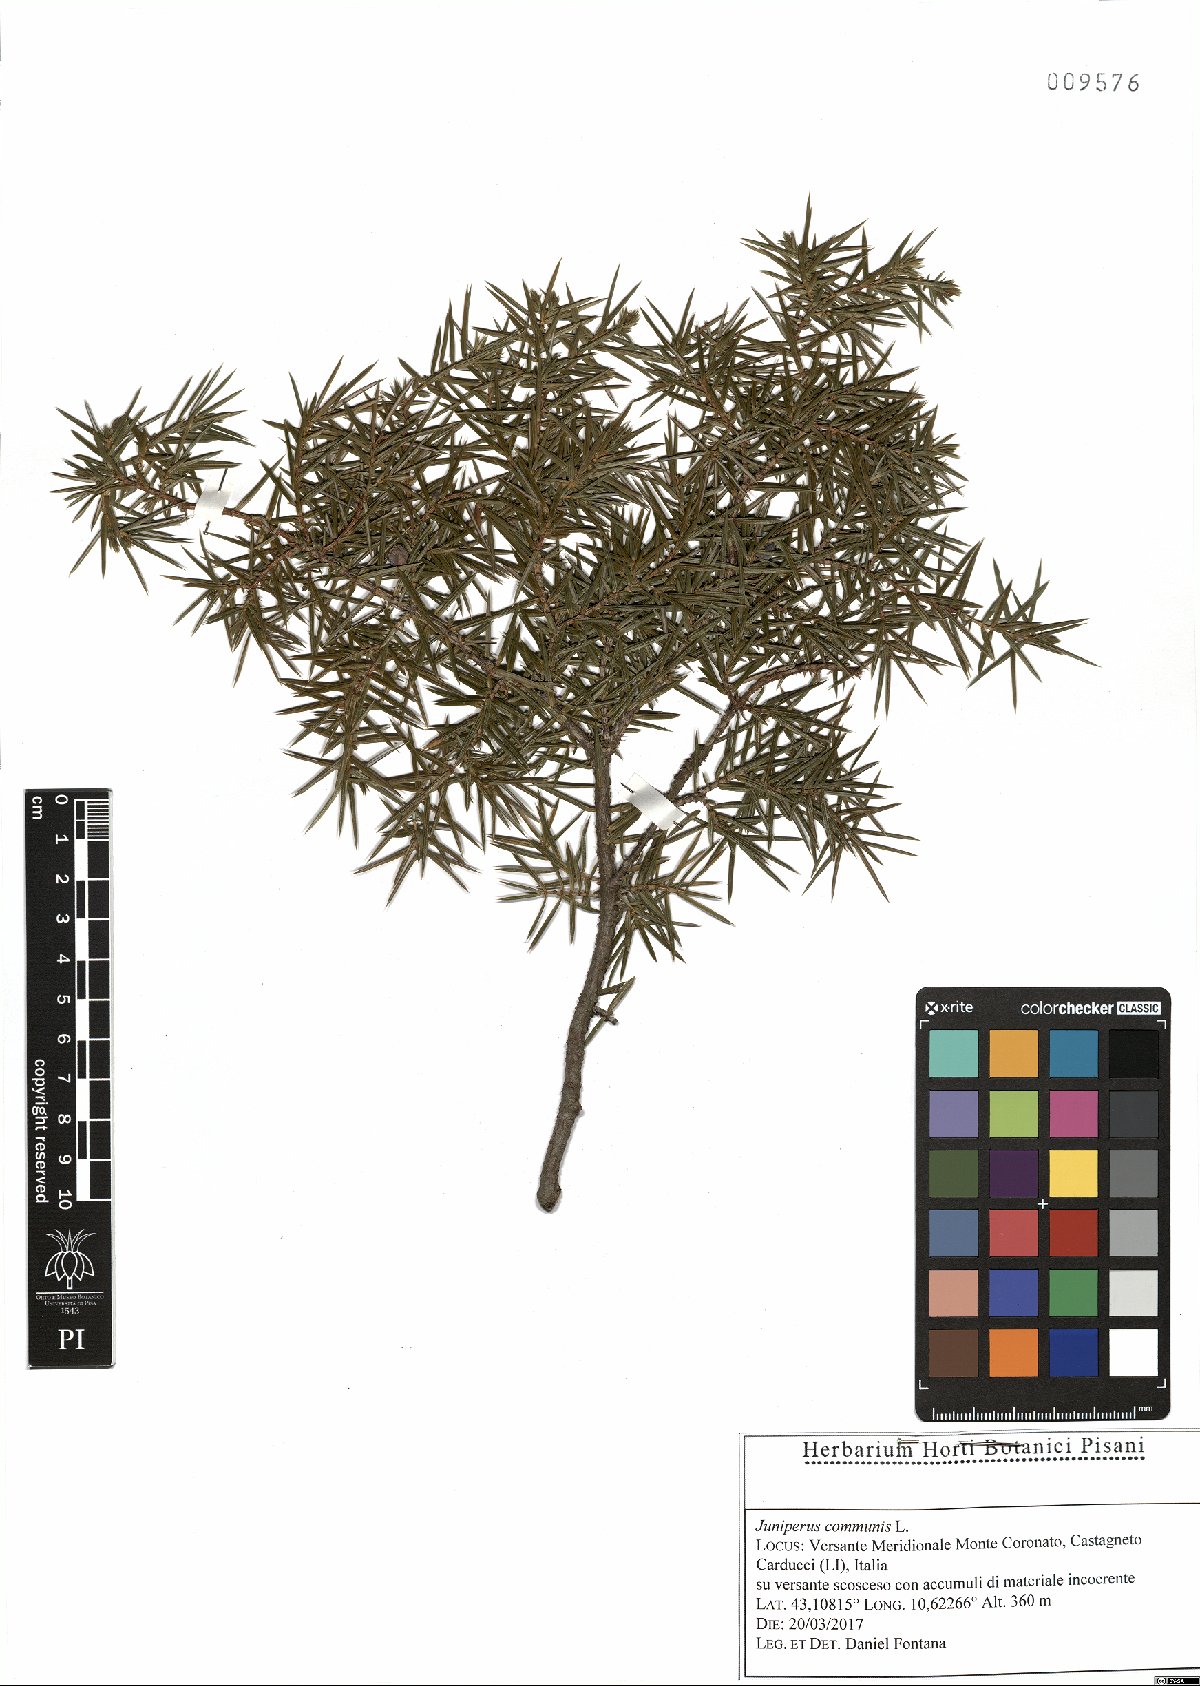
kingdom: Plantae
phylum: Tracheophyta
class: Pinopsida
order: Pinales
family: Cupressaceae
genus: Juniperus
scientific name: Juniperus oxycedrus
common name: Prickly juniper
